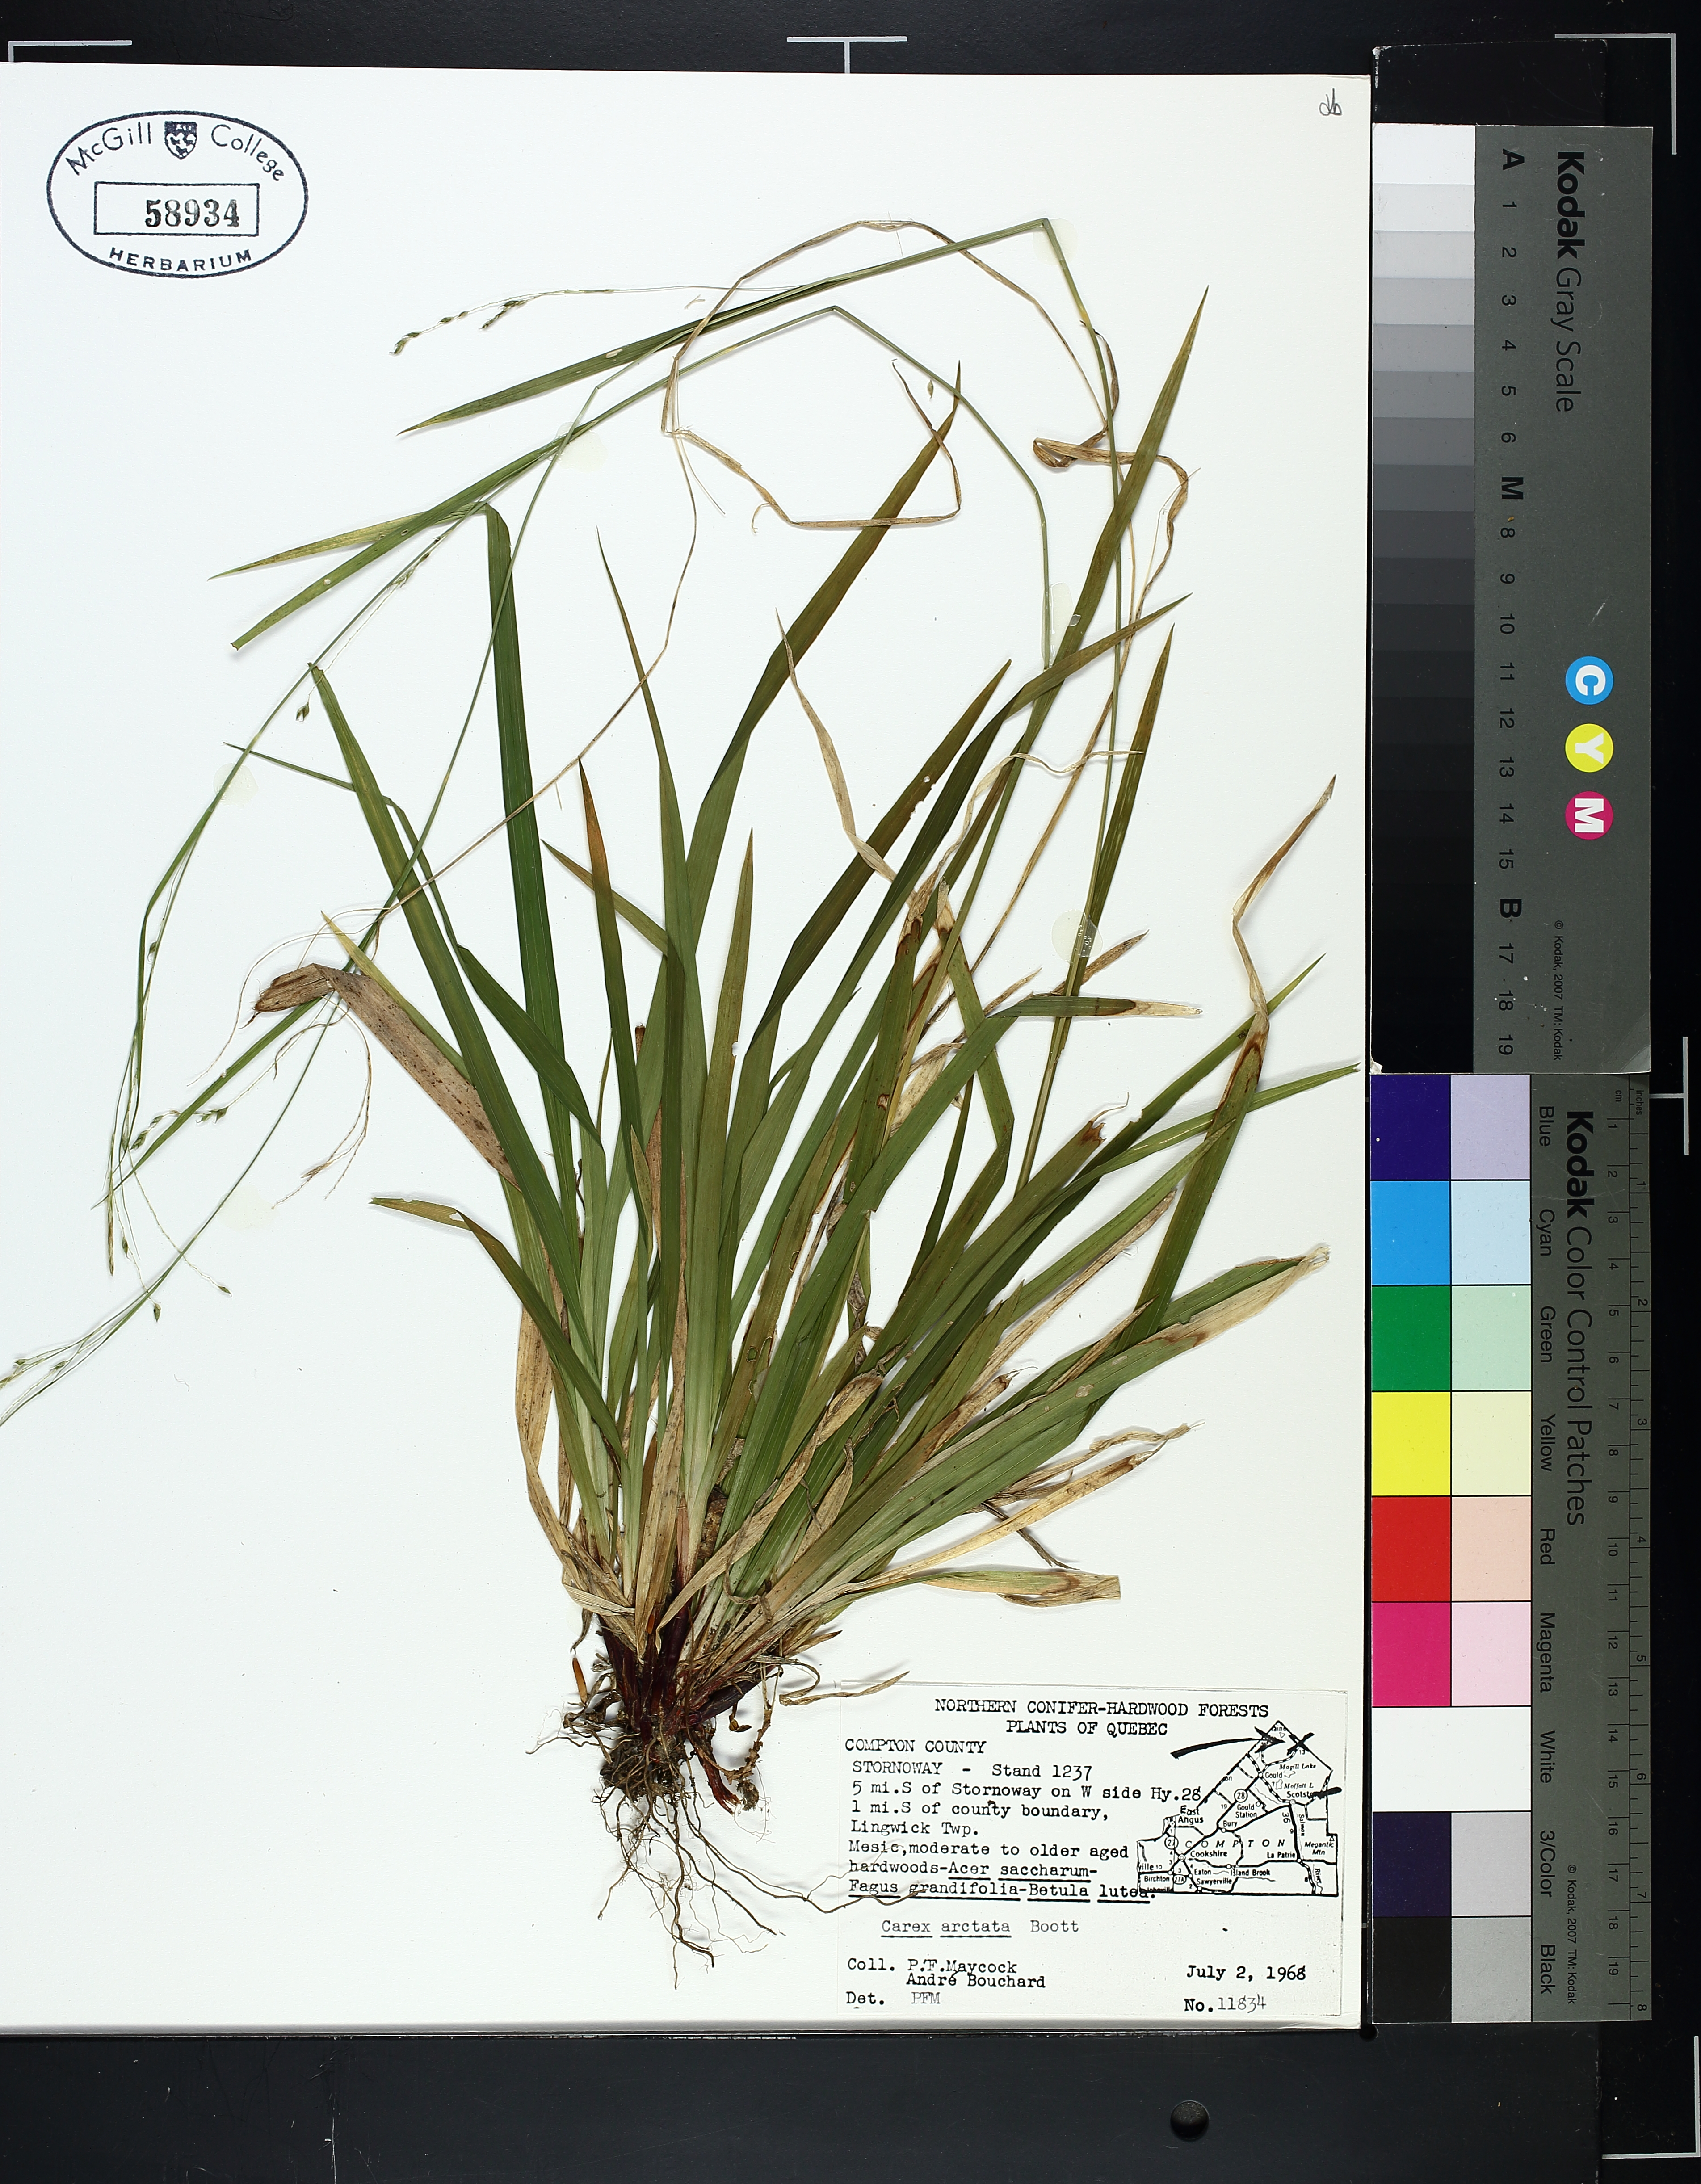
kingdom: Plantae
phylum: Tracheophyta
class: Liliopsida
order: Poales
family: Cyperaceae
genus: Carex
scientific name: Carex arctata
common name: Black sedge
